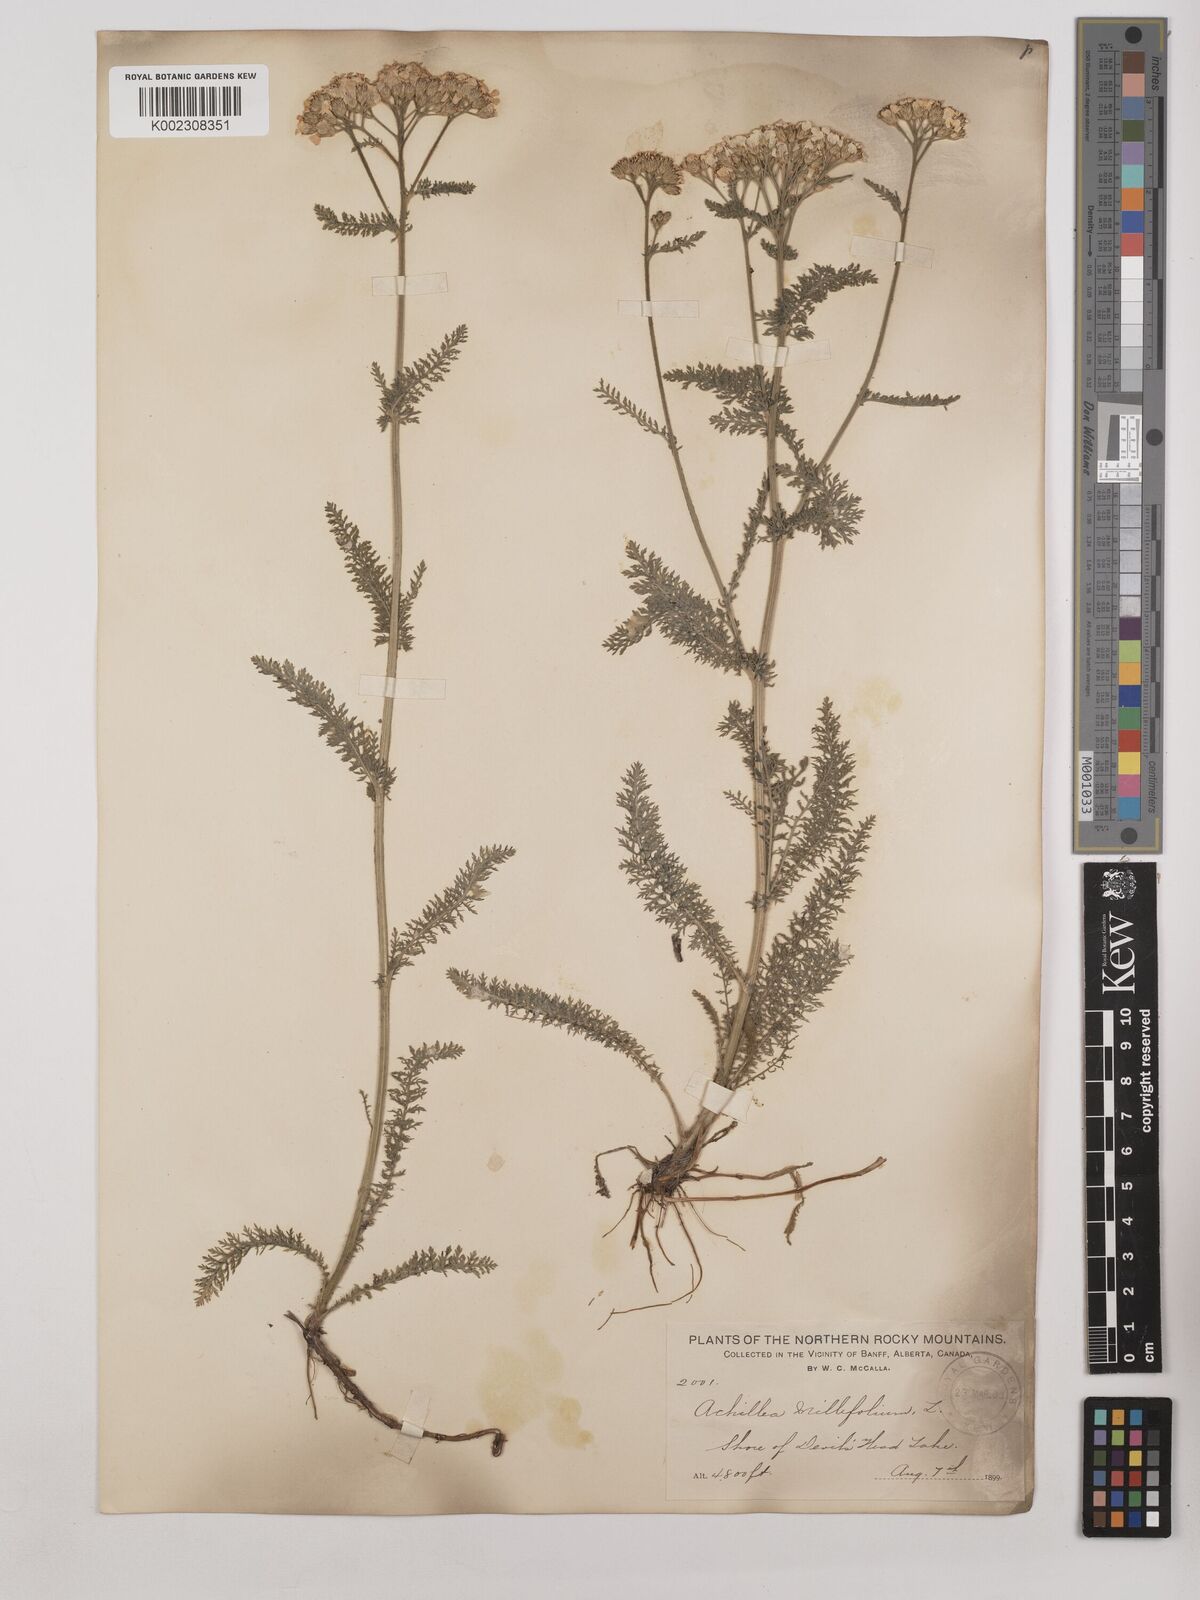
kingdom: Plantae
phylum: Tracheophyta
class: Magnoliopsida
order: Asterales
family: Asteraceae
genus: Achillea
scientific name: Achillea millefolium
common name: Yarrow
